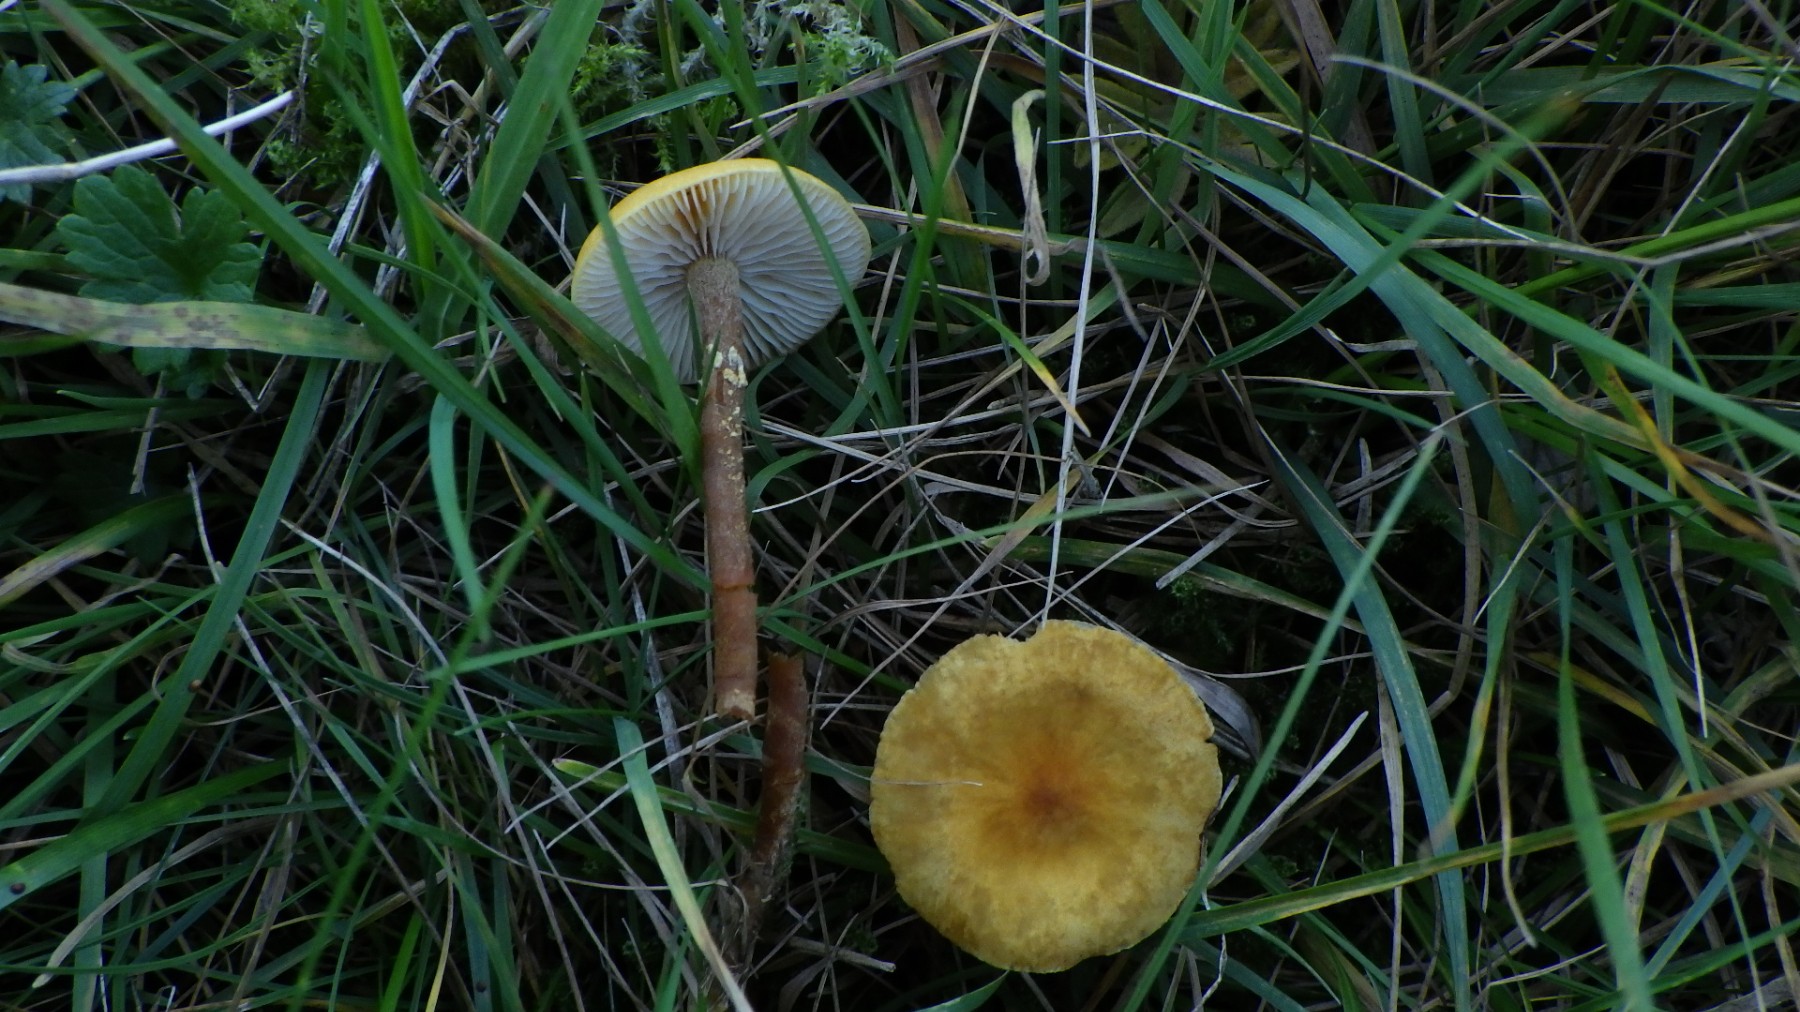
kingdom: Fungi
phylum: Basidiomycota
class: Agaricomycetes
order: Agaricales
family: Tricholomataceae
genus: Cystoderma
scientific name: Cystoderma amianthinum
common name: okkergul grynhat
